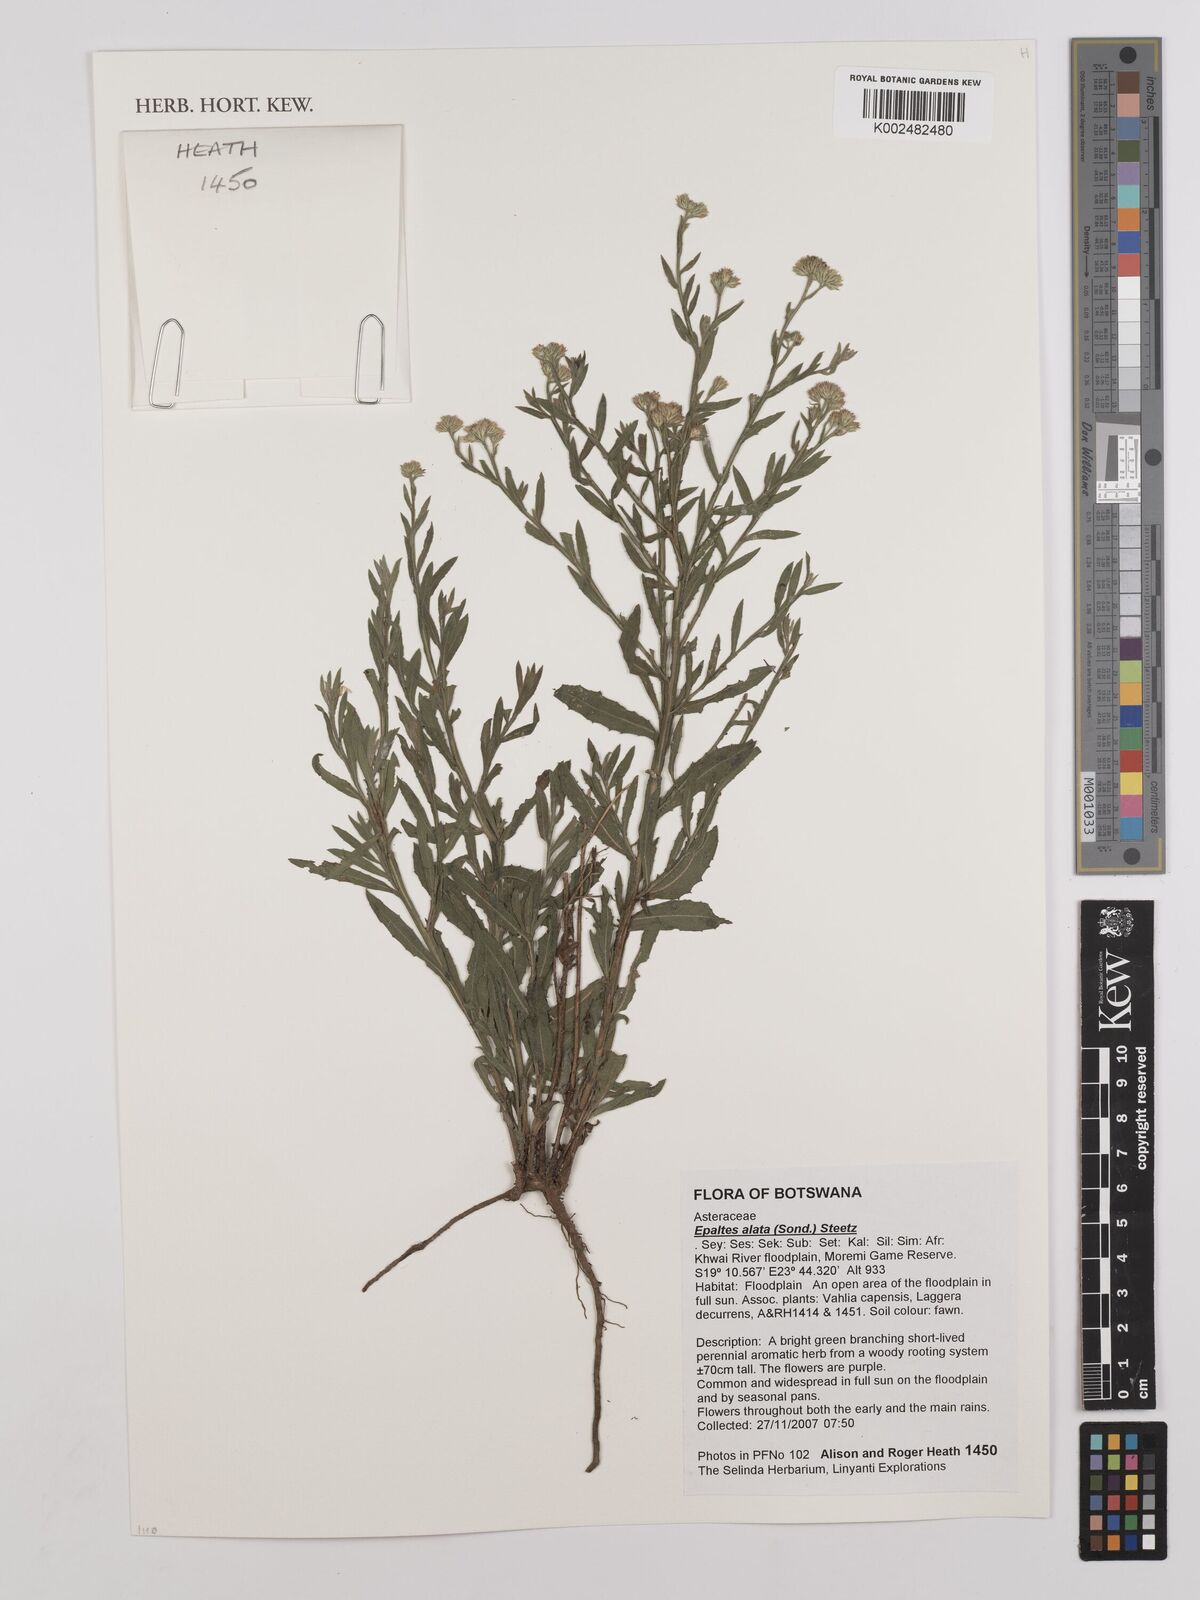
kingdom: Plantae
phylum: Tracheophyta
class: Magnoliopsida
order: Asterales
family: Asteraceae
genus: Litogyne
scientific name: Litogyne gariepina
